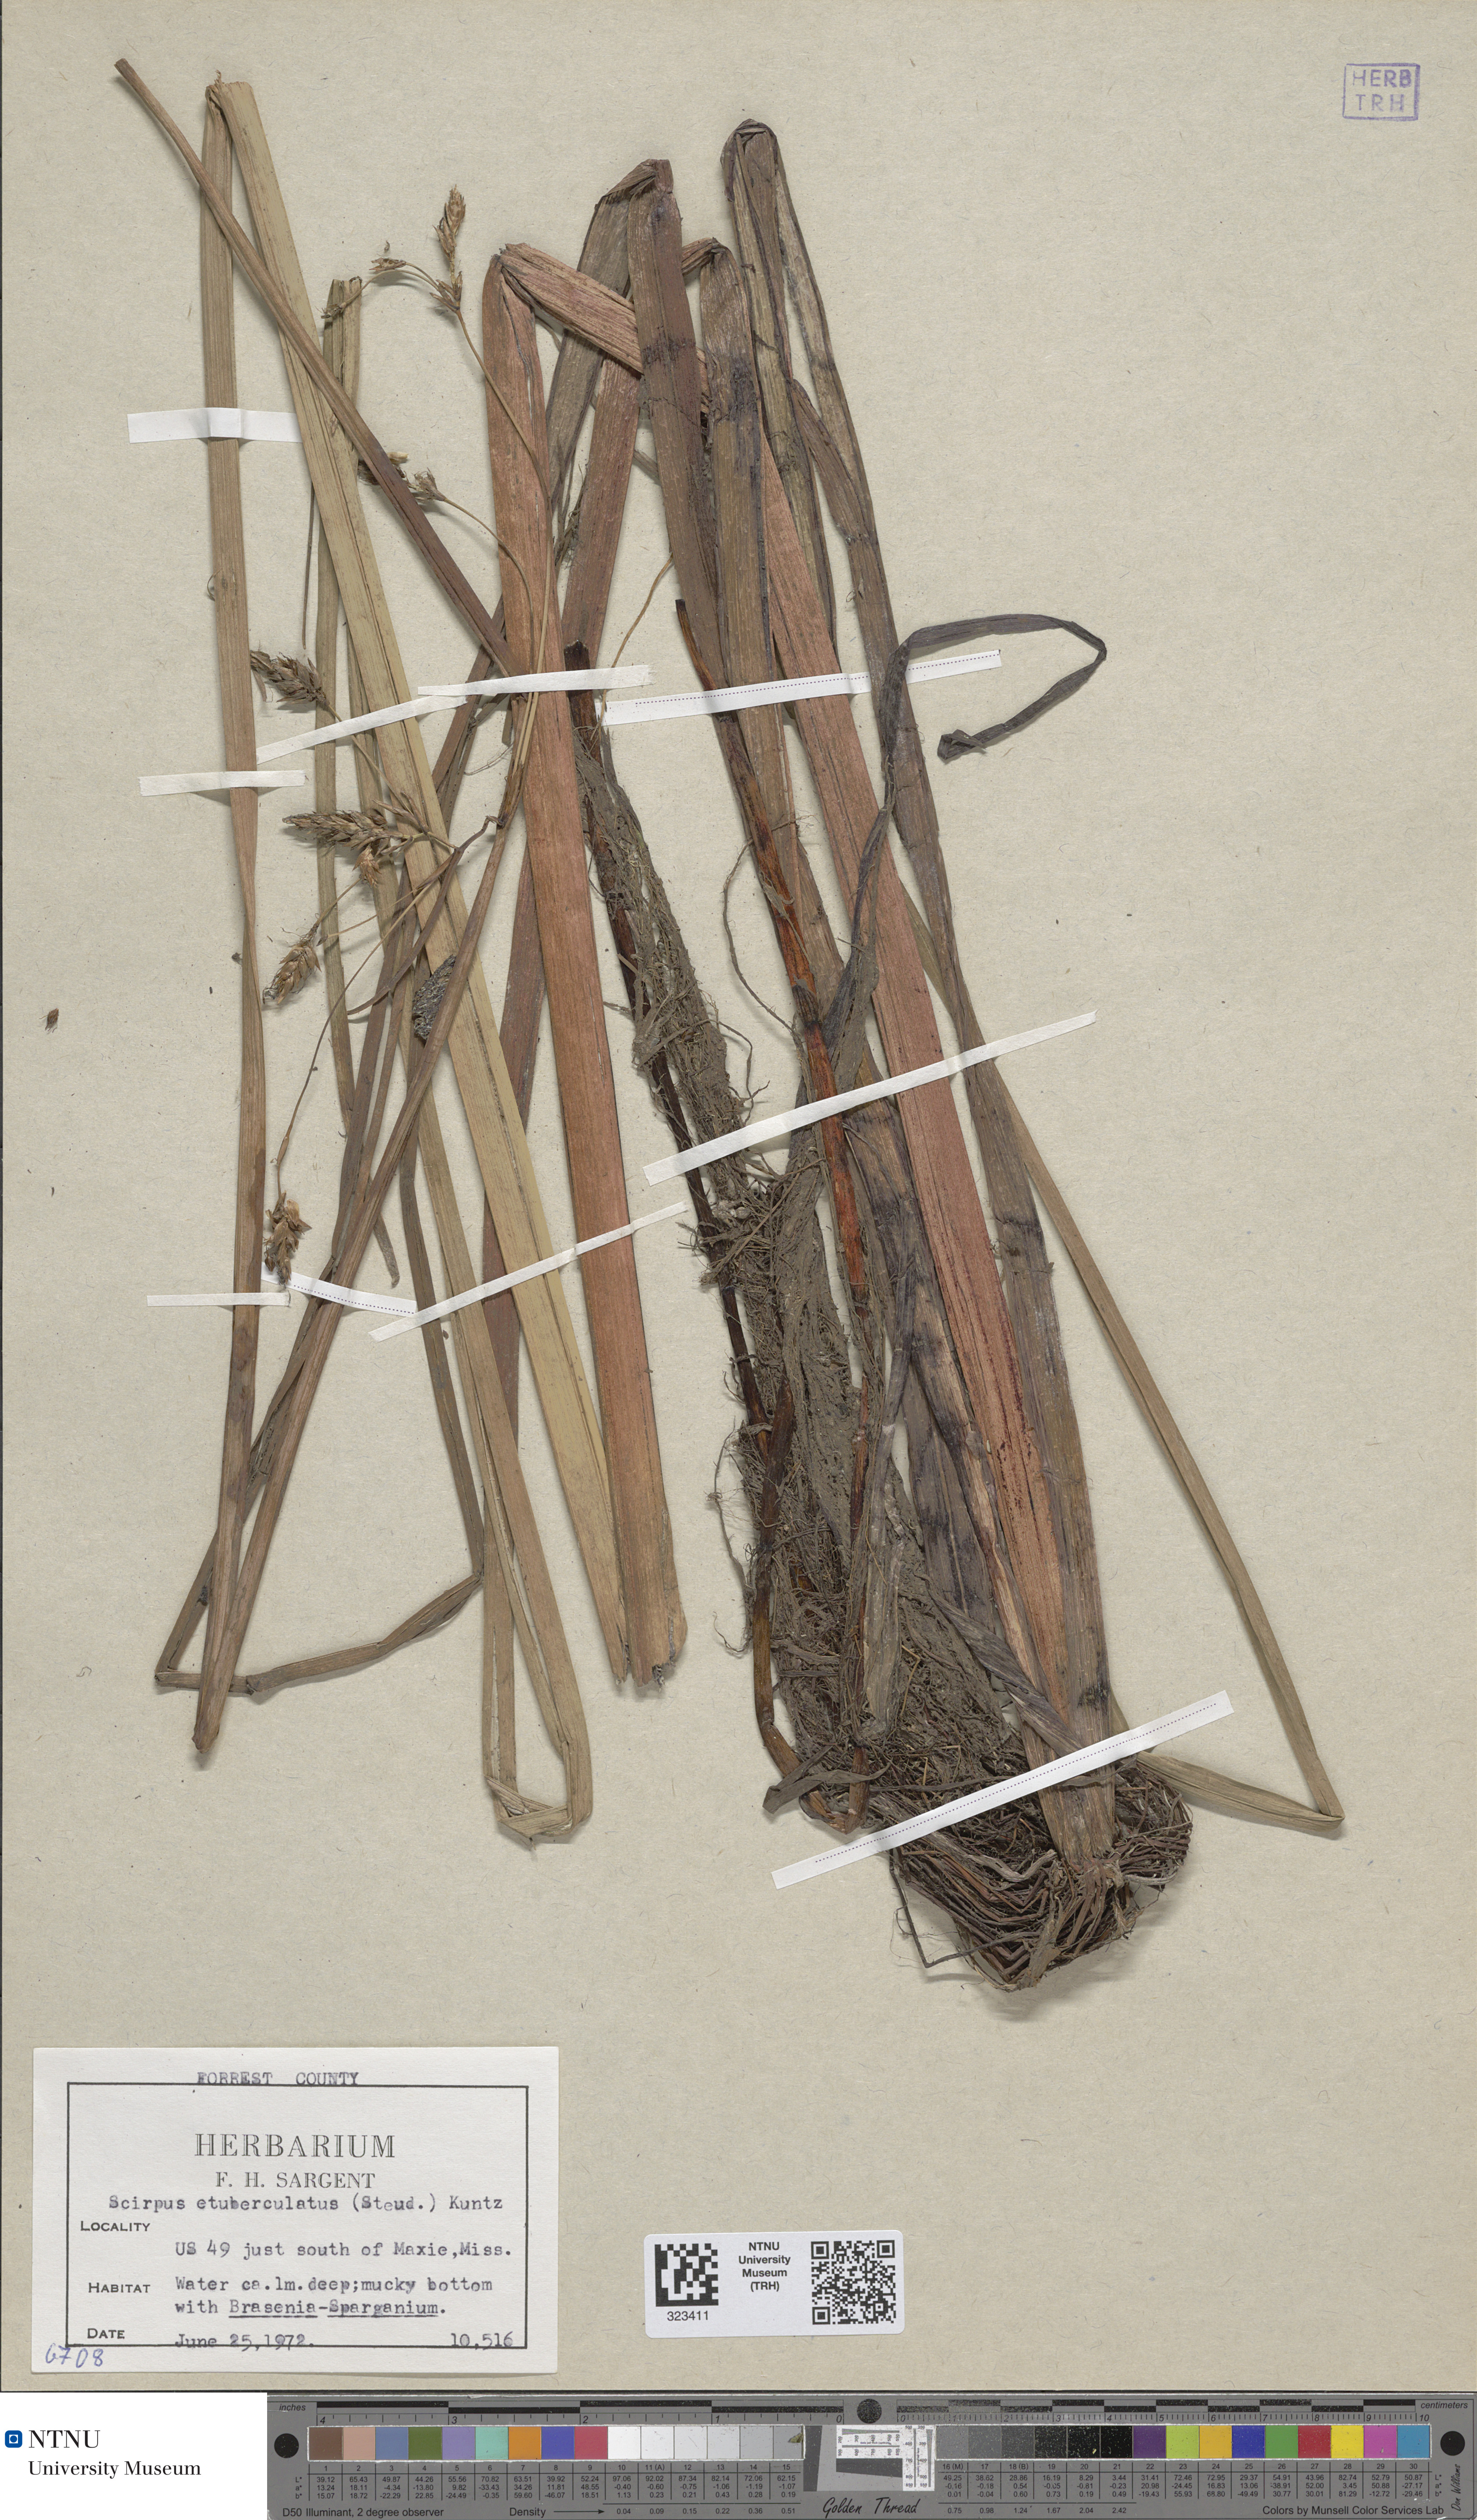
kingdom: Plantae
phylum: Tracheophyta
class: Liliopsida
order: Poales
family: Cyperaceae
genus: Schoenoplectus
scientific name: Schoenoplectus etuberculatus
